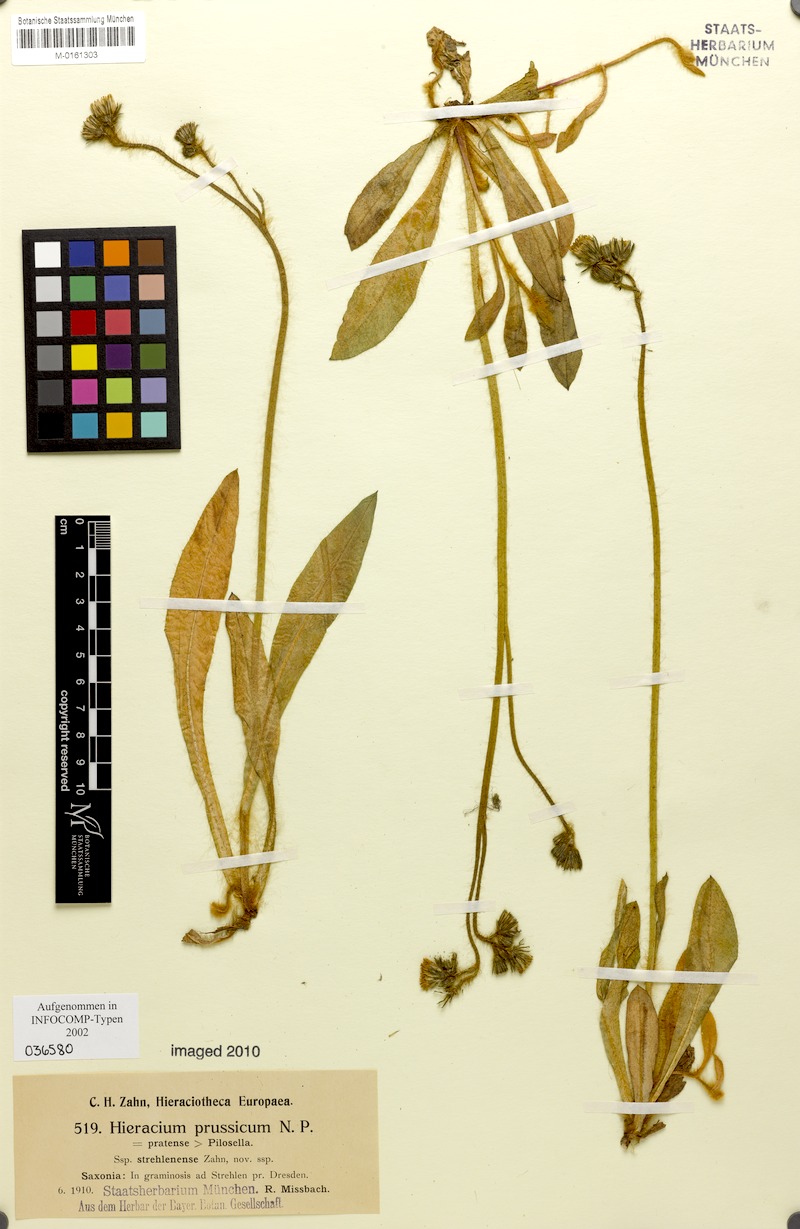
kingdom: Plantae
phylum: Tracheophyta
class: Magnoliopsida
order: Asterales
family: Asteraceae
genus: Pilosella
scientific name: Pilosella prussica
